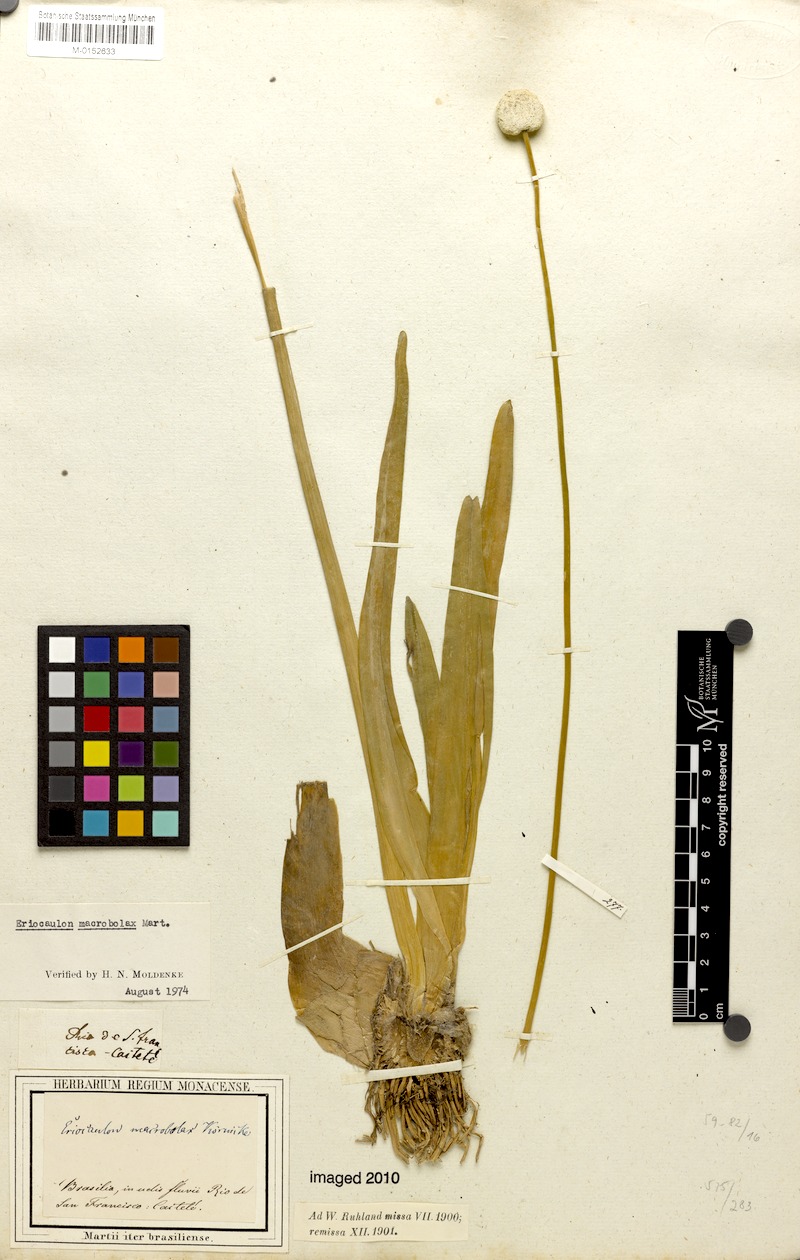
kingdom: Plantae
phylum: Tracheophyta
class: Liliopsida
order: Poales
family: Eriocaulaceae
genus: Eriocaulon
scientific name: Eriocaulon macrobolax
